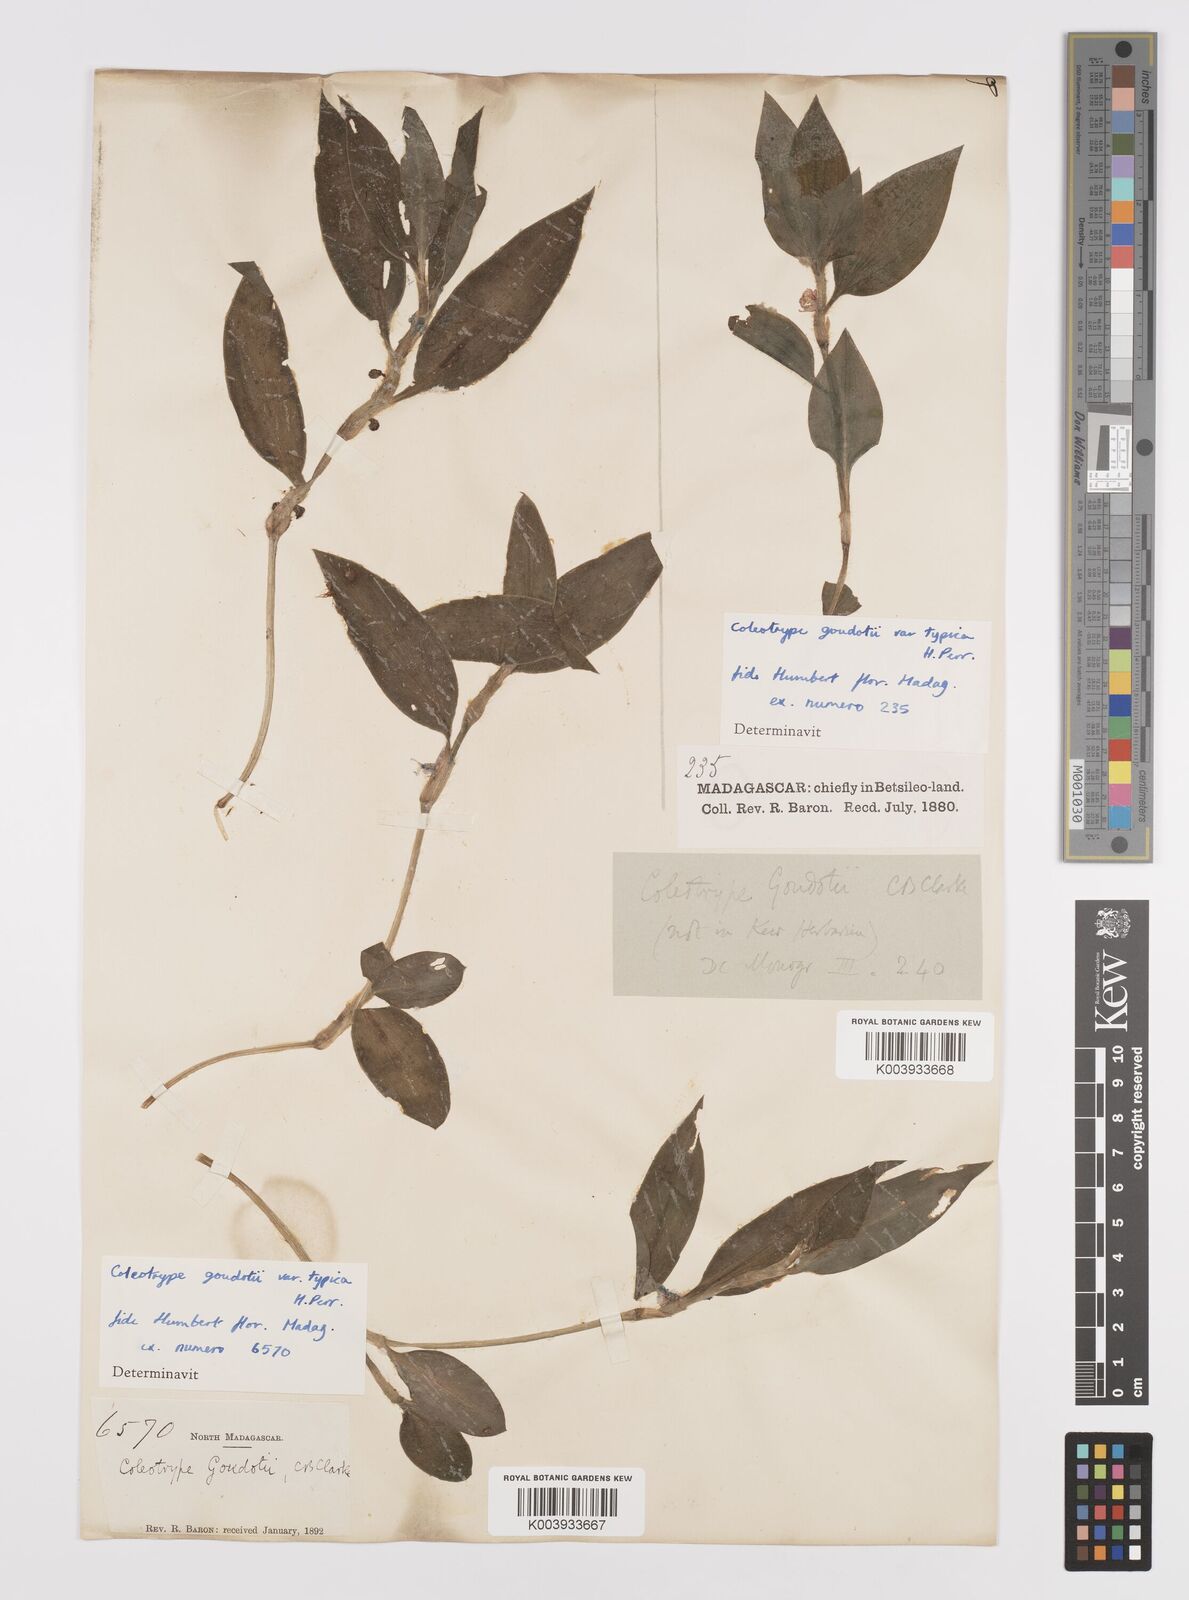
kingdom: Plantae
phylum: Tracheophyta
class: Liliopsida
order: Commelinales
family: Commelinaceae
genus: Coleotrype
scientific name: Coleotrype goudotii
